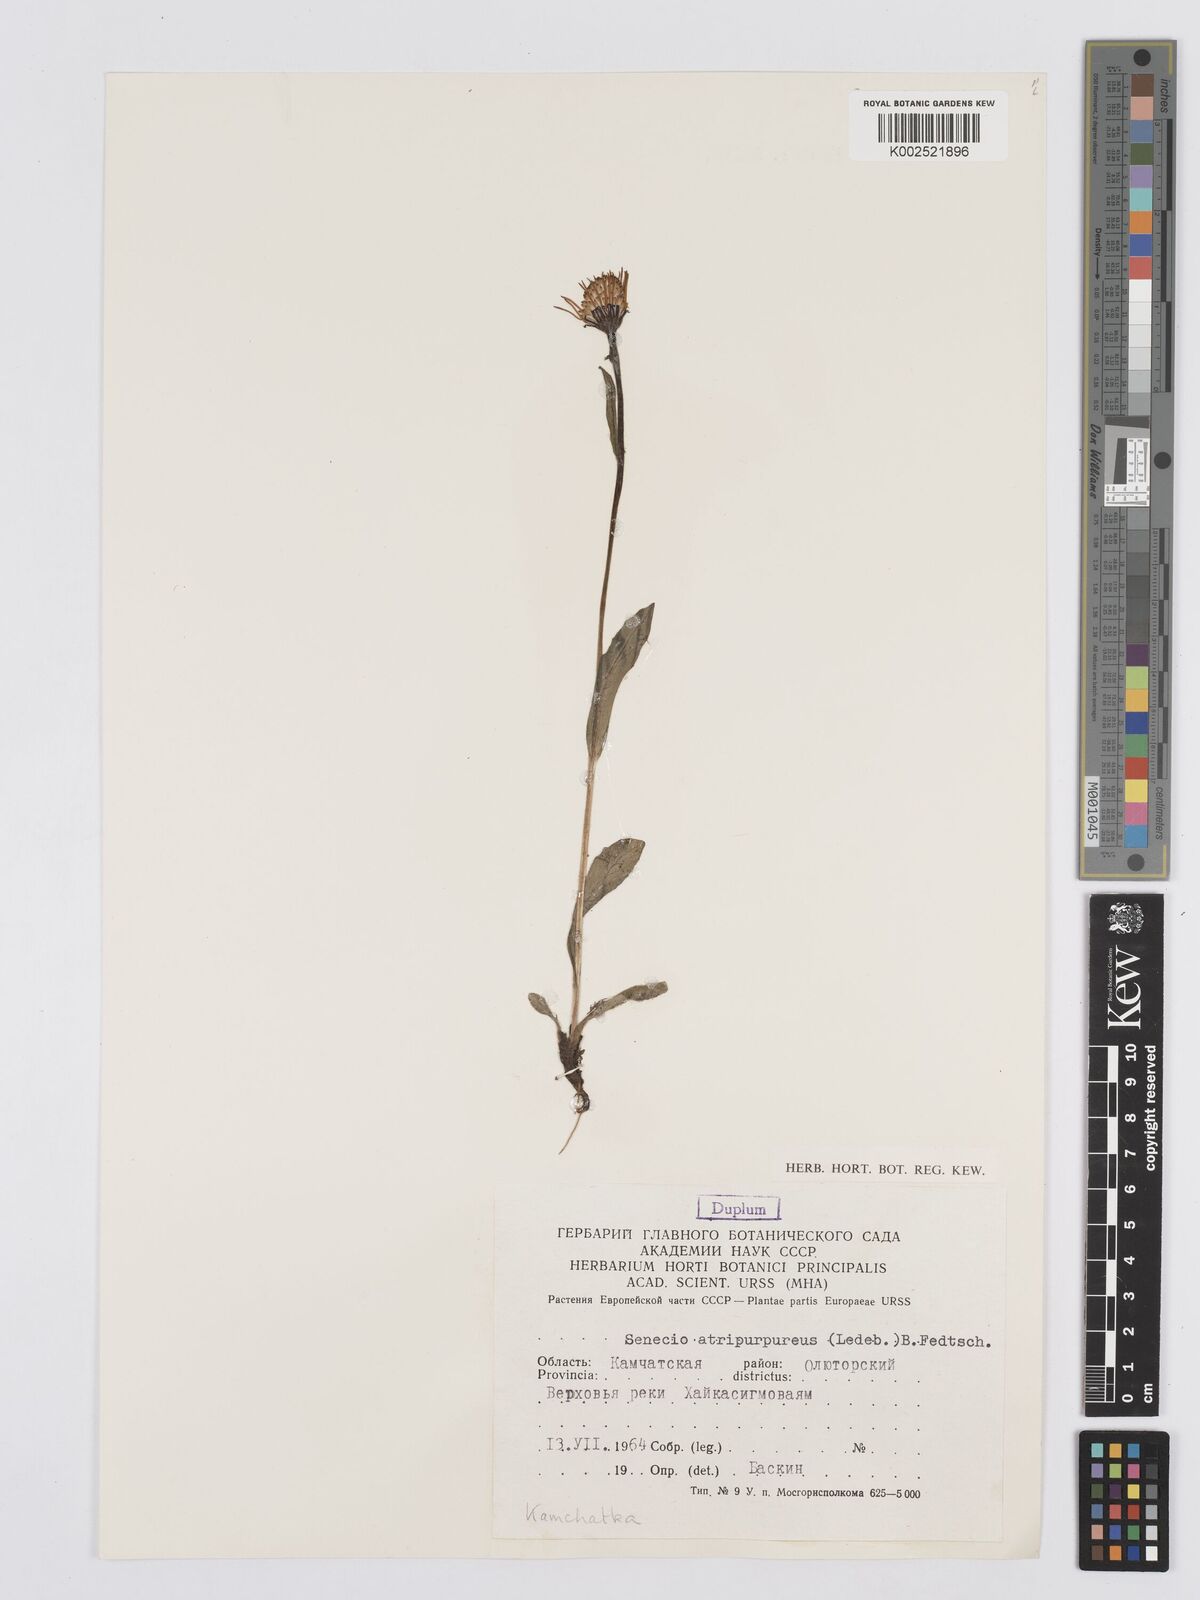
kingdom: Plantae
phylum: Tracheophyta
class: Magnoliopsida
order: Asterales
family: Asteraceae
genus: Tephroseris
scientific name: Tephroseris integrifolia
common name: Field fleawort
